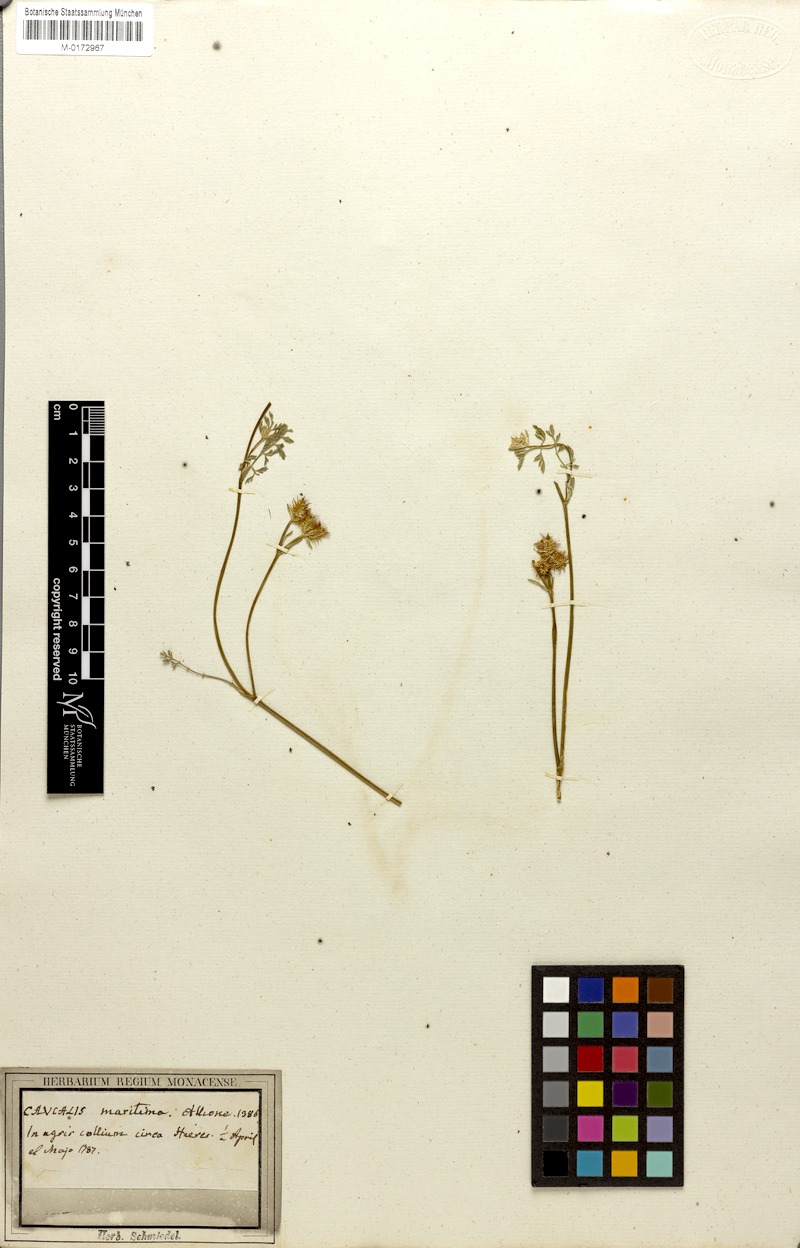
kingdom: Plantae
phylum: Tracheophyta
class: Magnoliopsida
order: Apiales
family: Apiaceae
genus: Daucus
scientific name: Daucus pumilus
